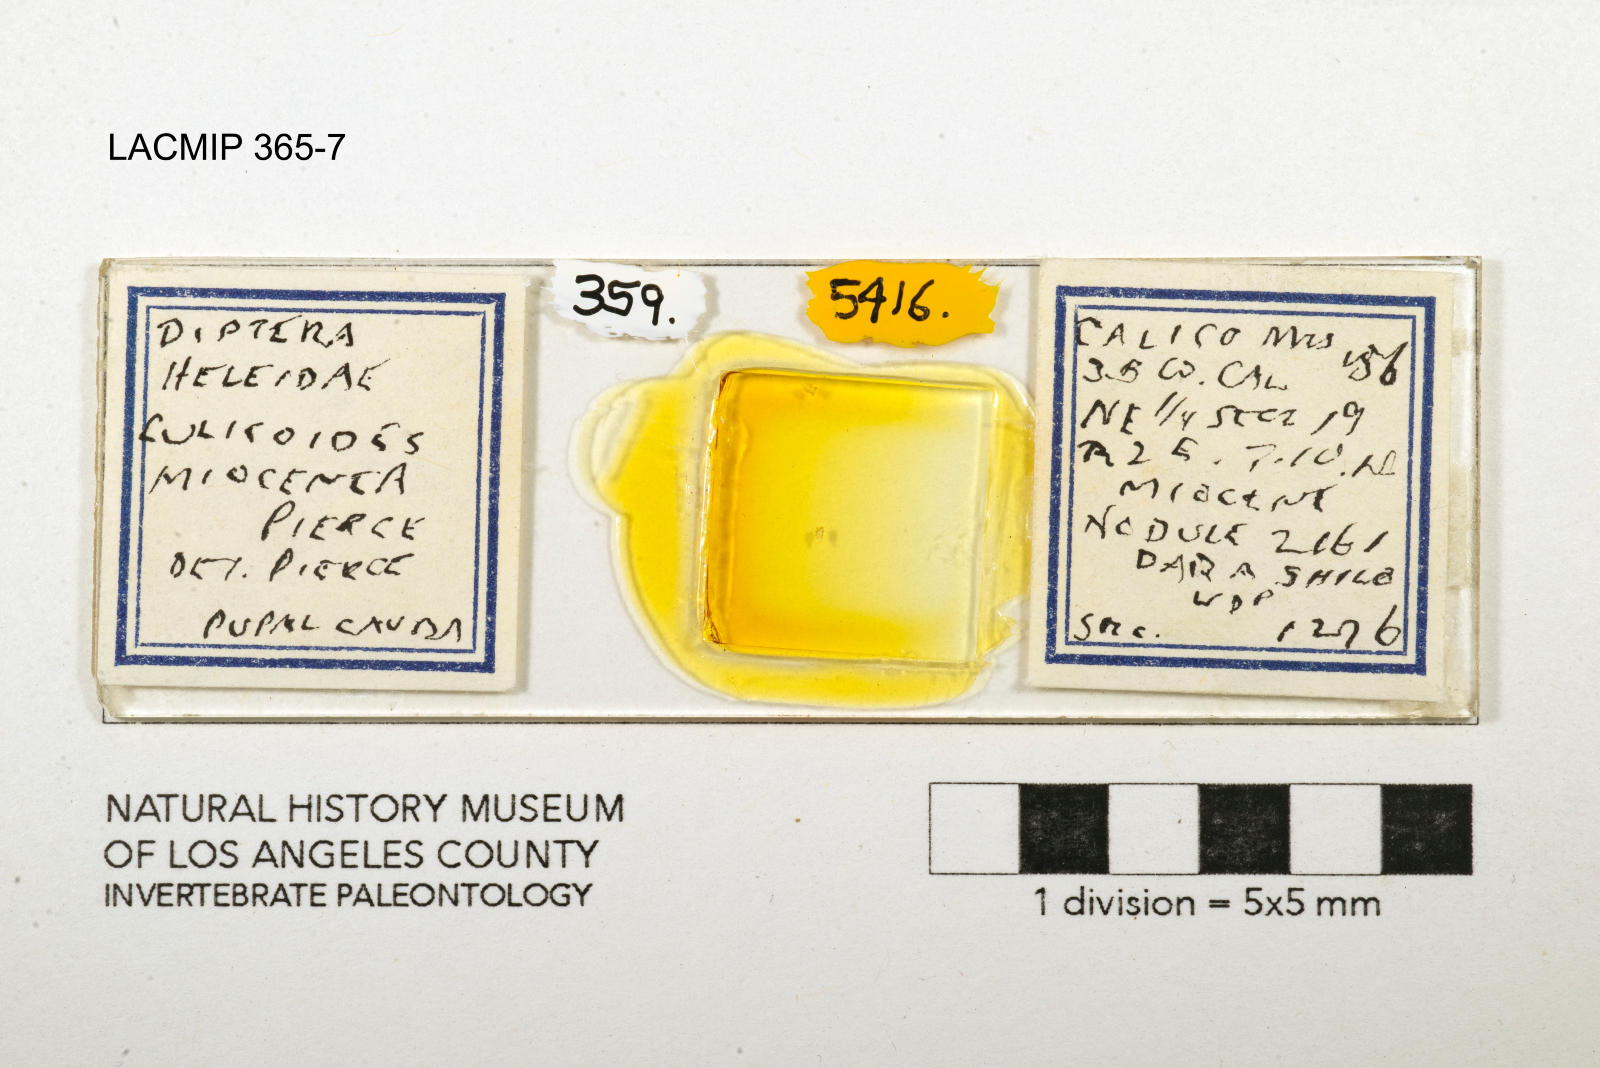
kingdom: Animalia
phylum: Arthropoda
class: Insecta
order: Diptera
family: Ceratopogonidae
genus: Culicoides
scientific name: Culicoides miocenicus
